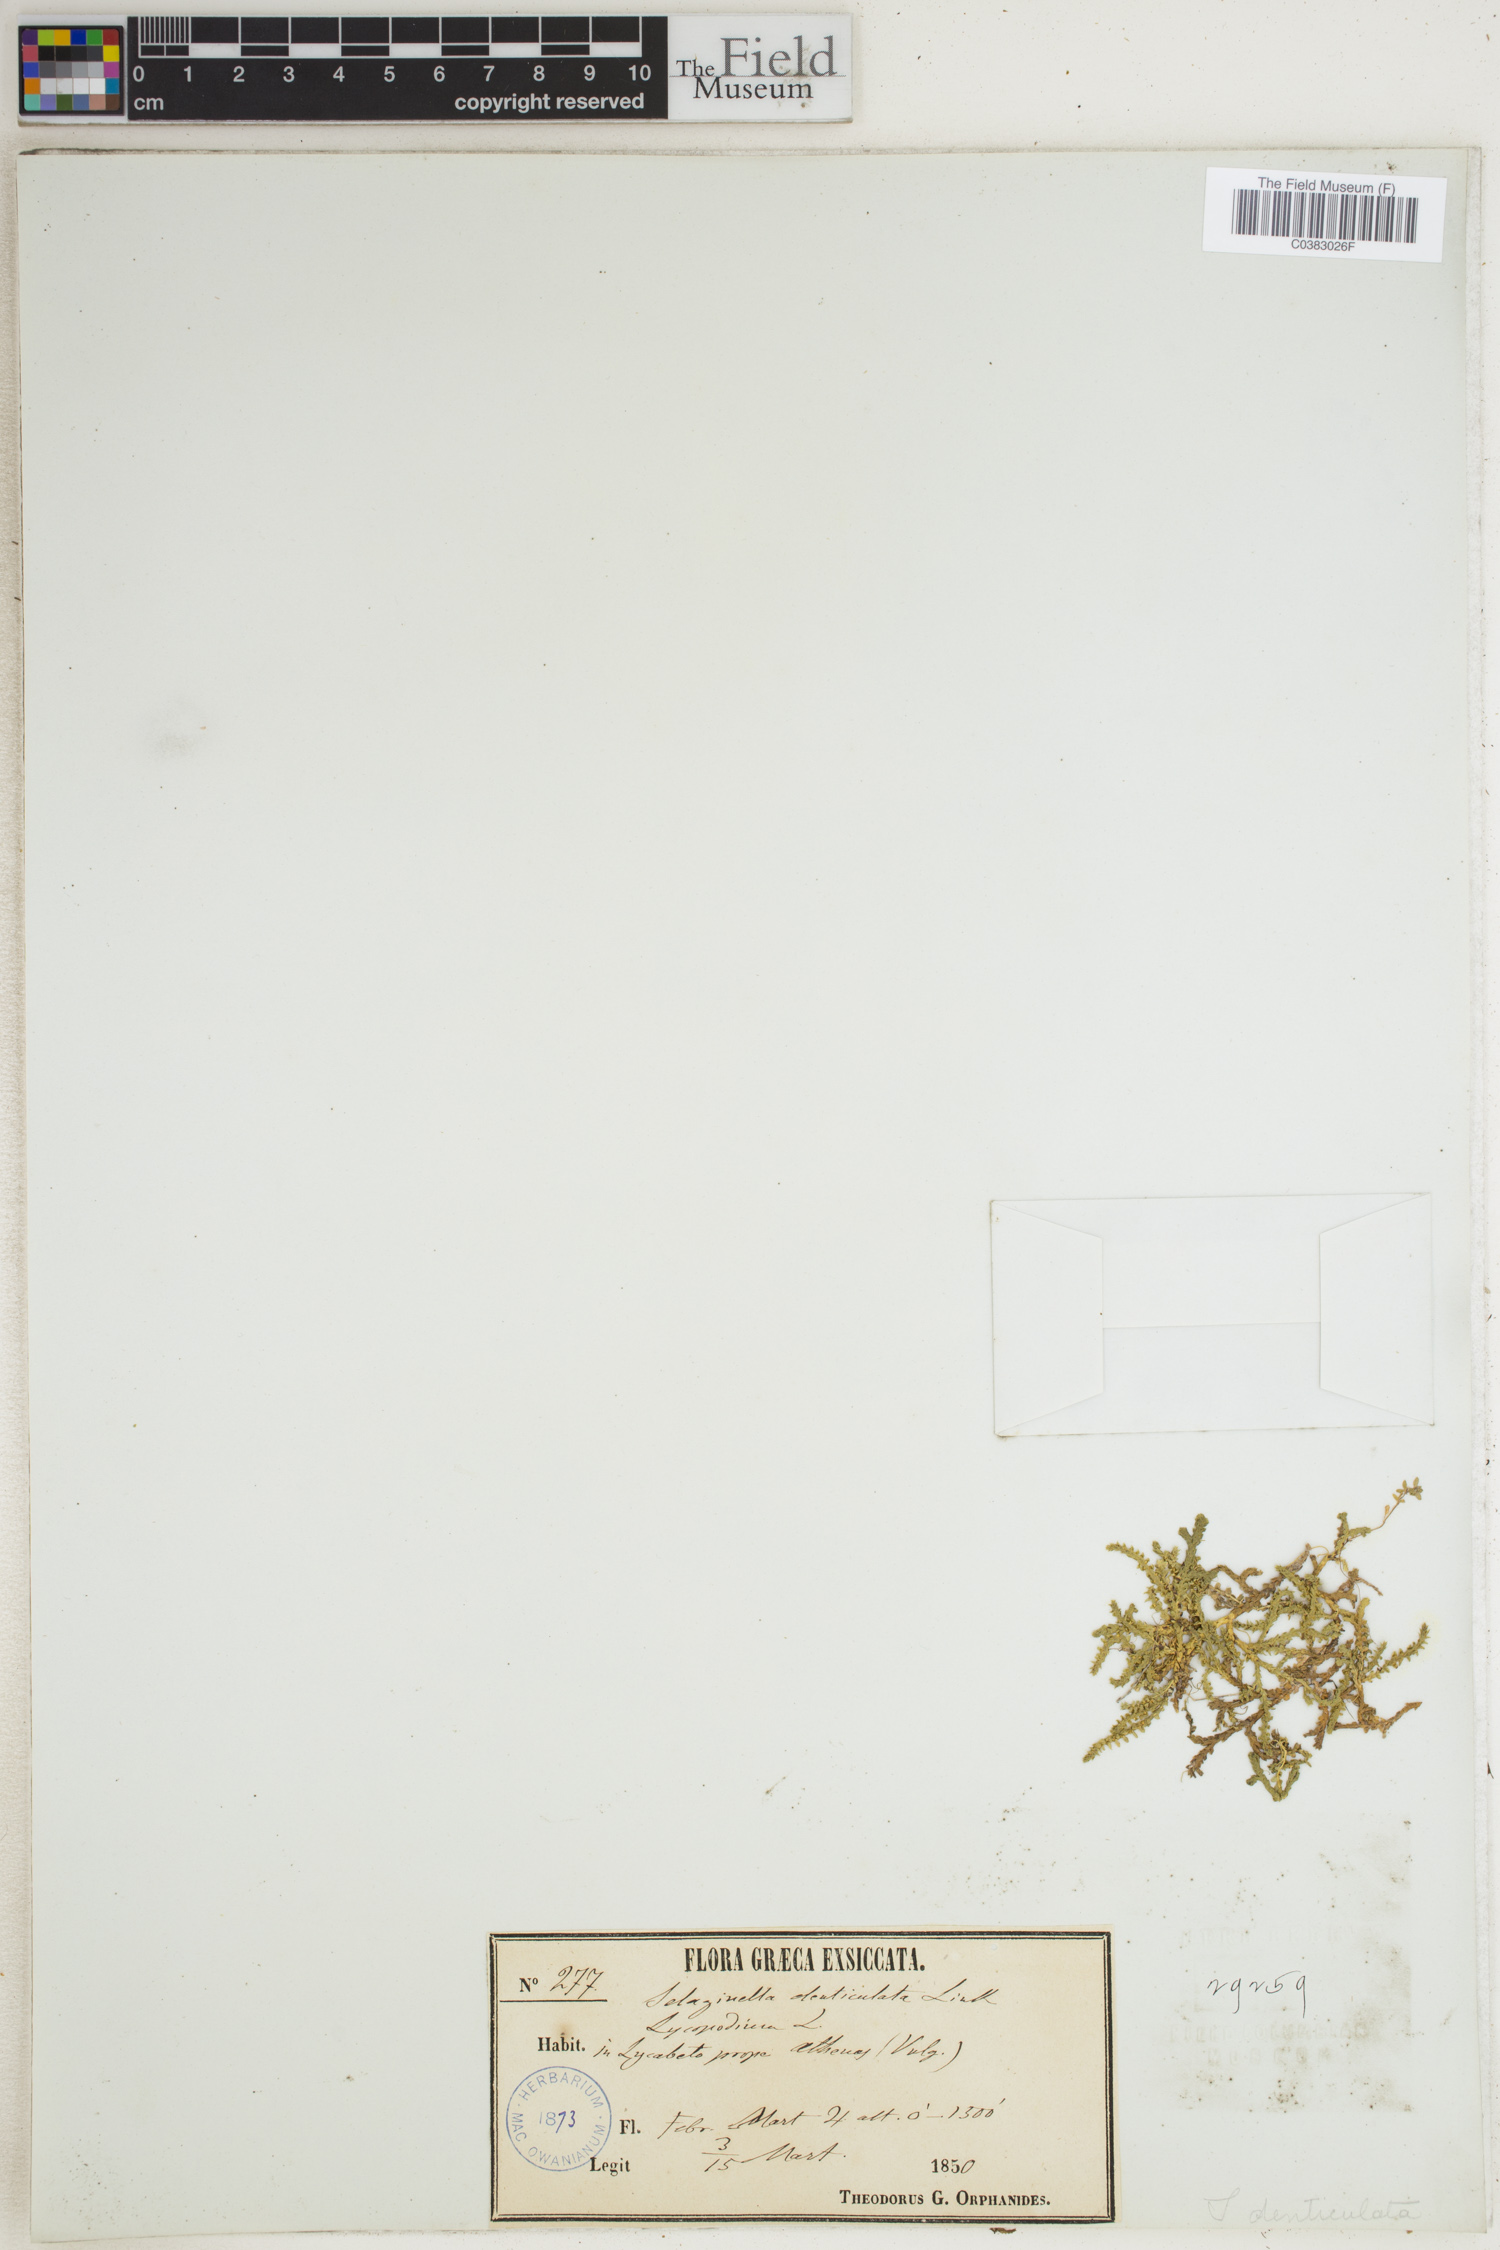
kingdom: Plantae
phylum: Tracheophyta
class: Lycopodiopsida
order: Selaginellales
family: Selaginellaceae
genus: Selaginella
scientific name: Selaginella denticulata
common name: Toothed-leaved clubmoss
